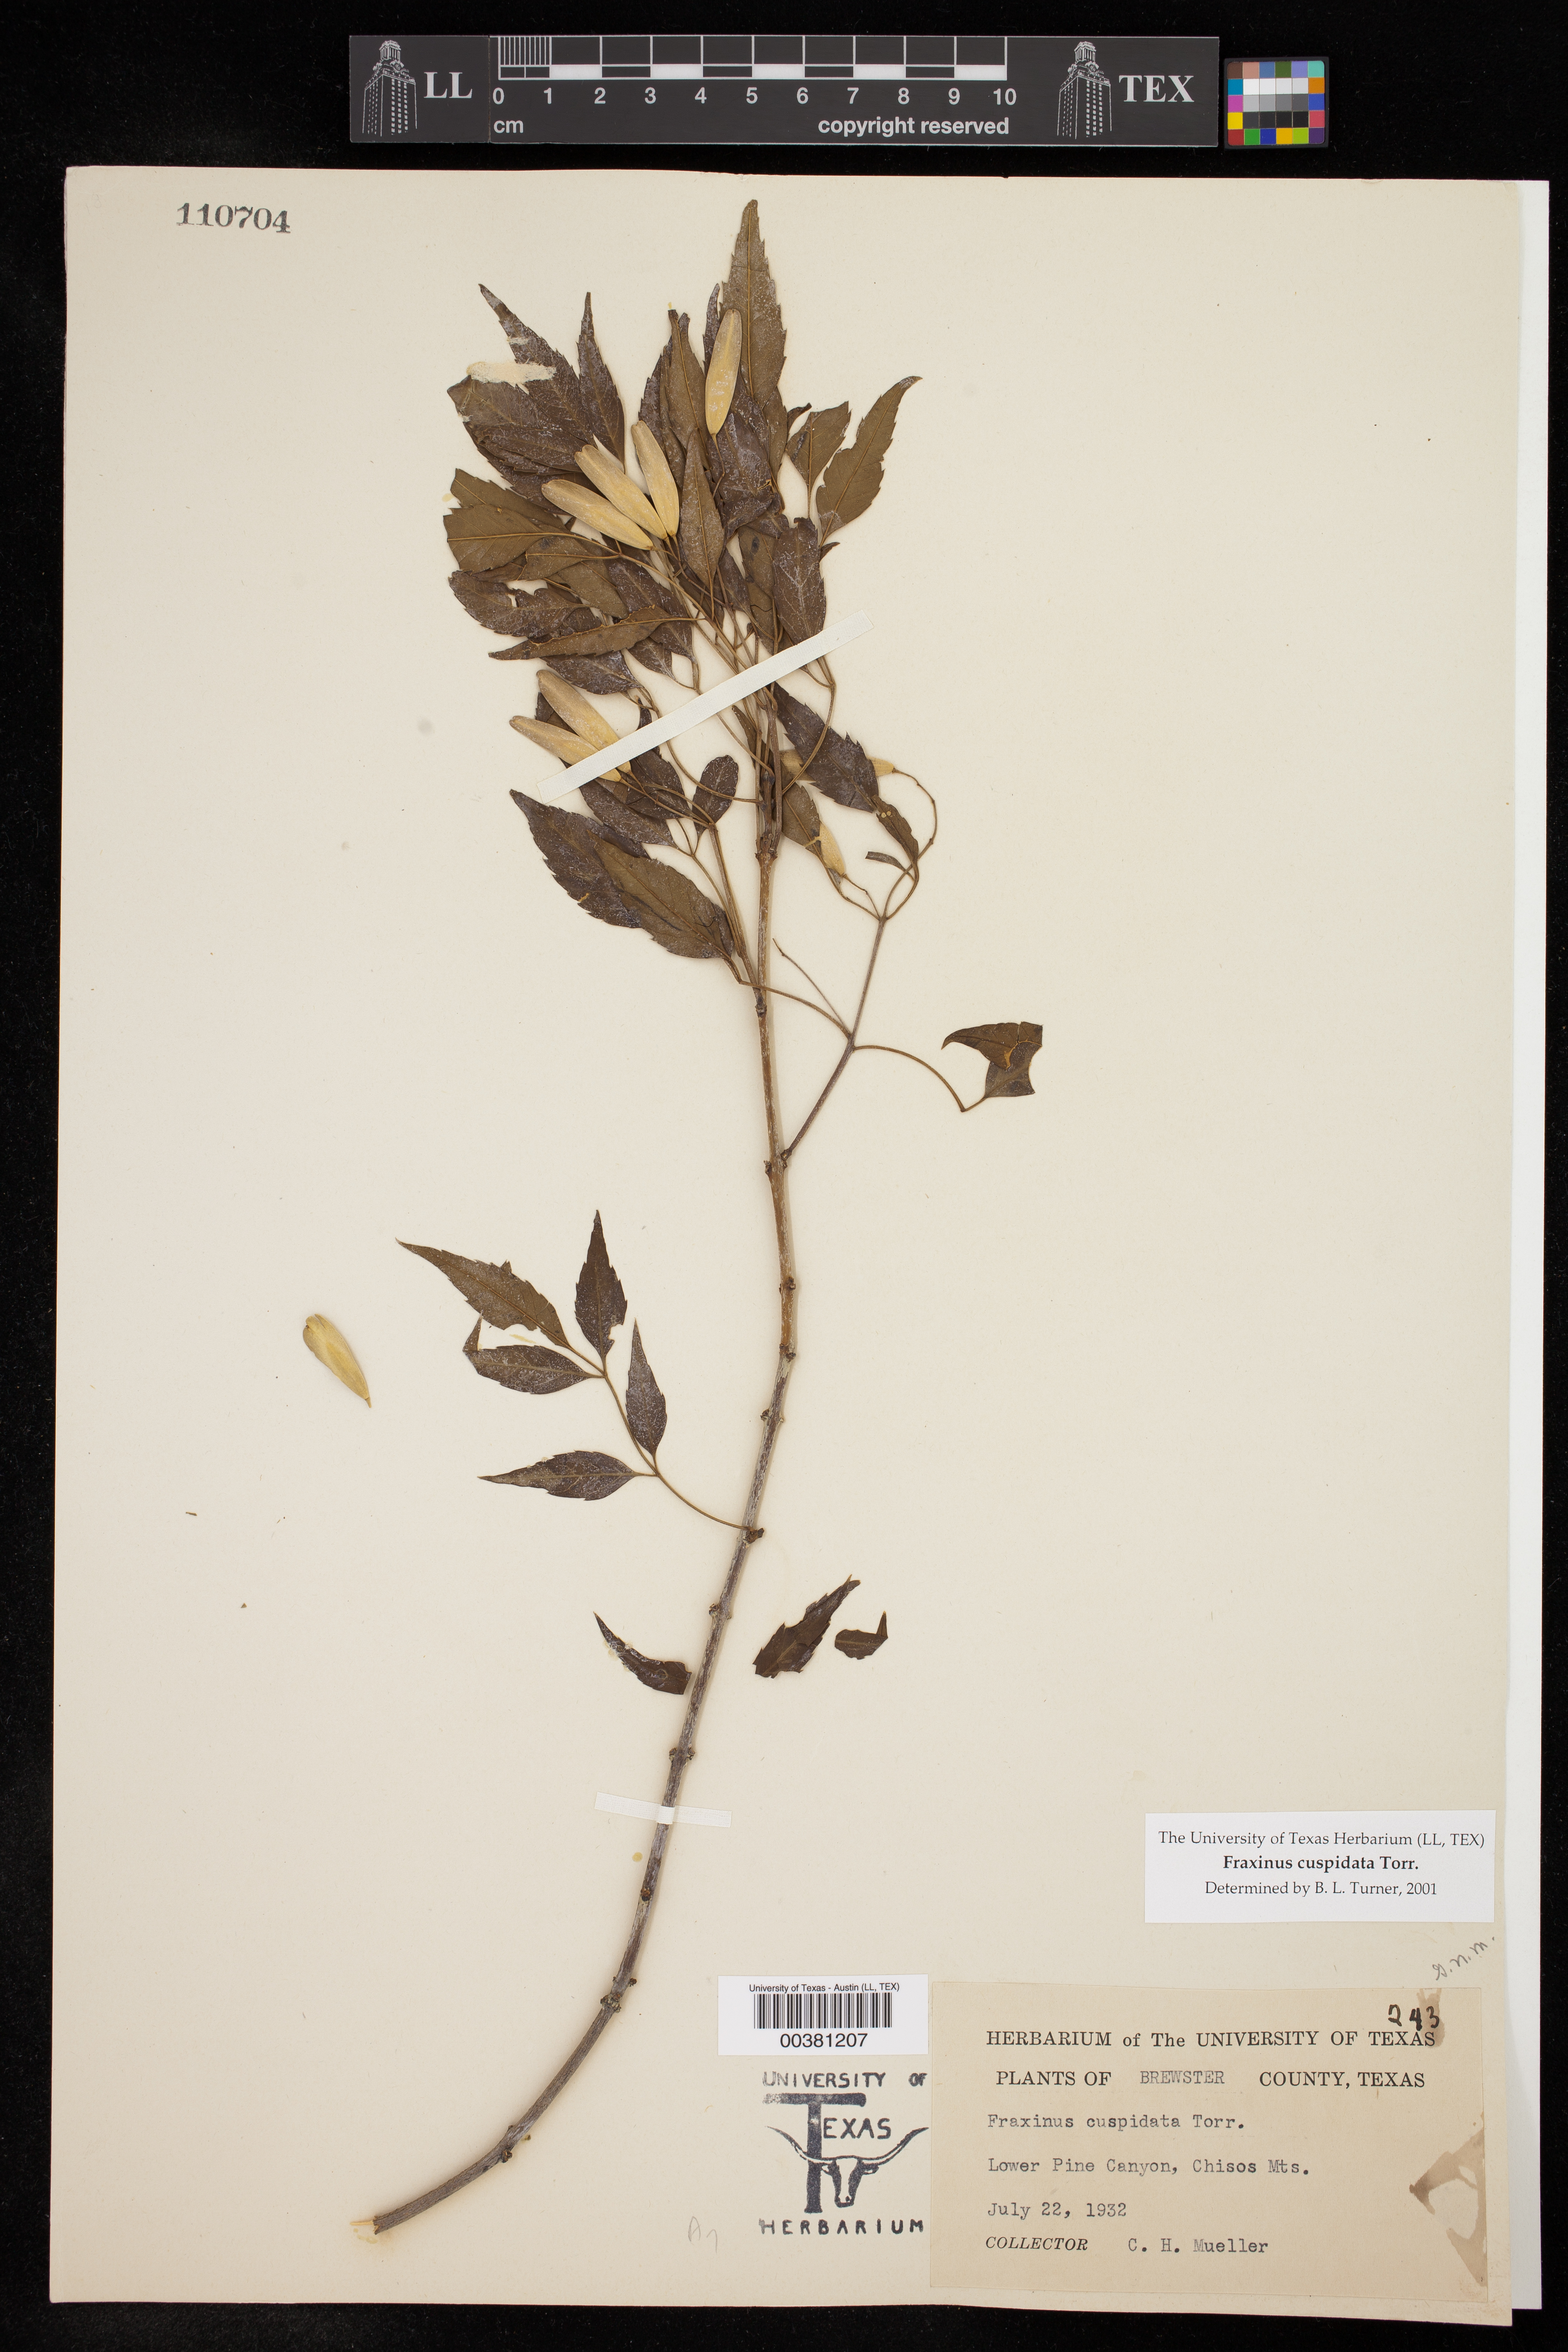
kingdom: Plantae
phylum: Tracheophyta
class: Magnoliopsida
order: Lamiales
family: Oleaceae
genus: Fraxinus
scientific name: Fraxinus cuspidata
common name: Fragrant ash
